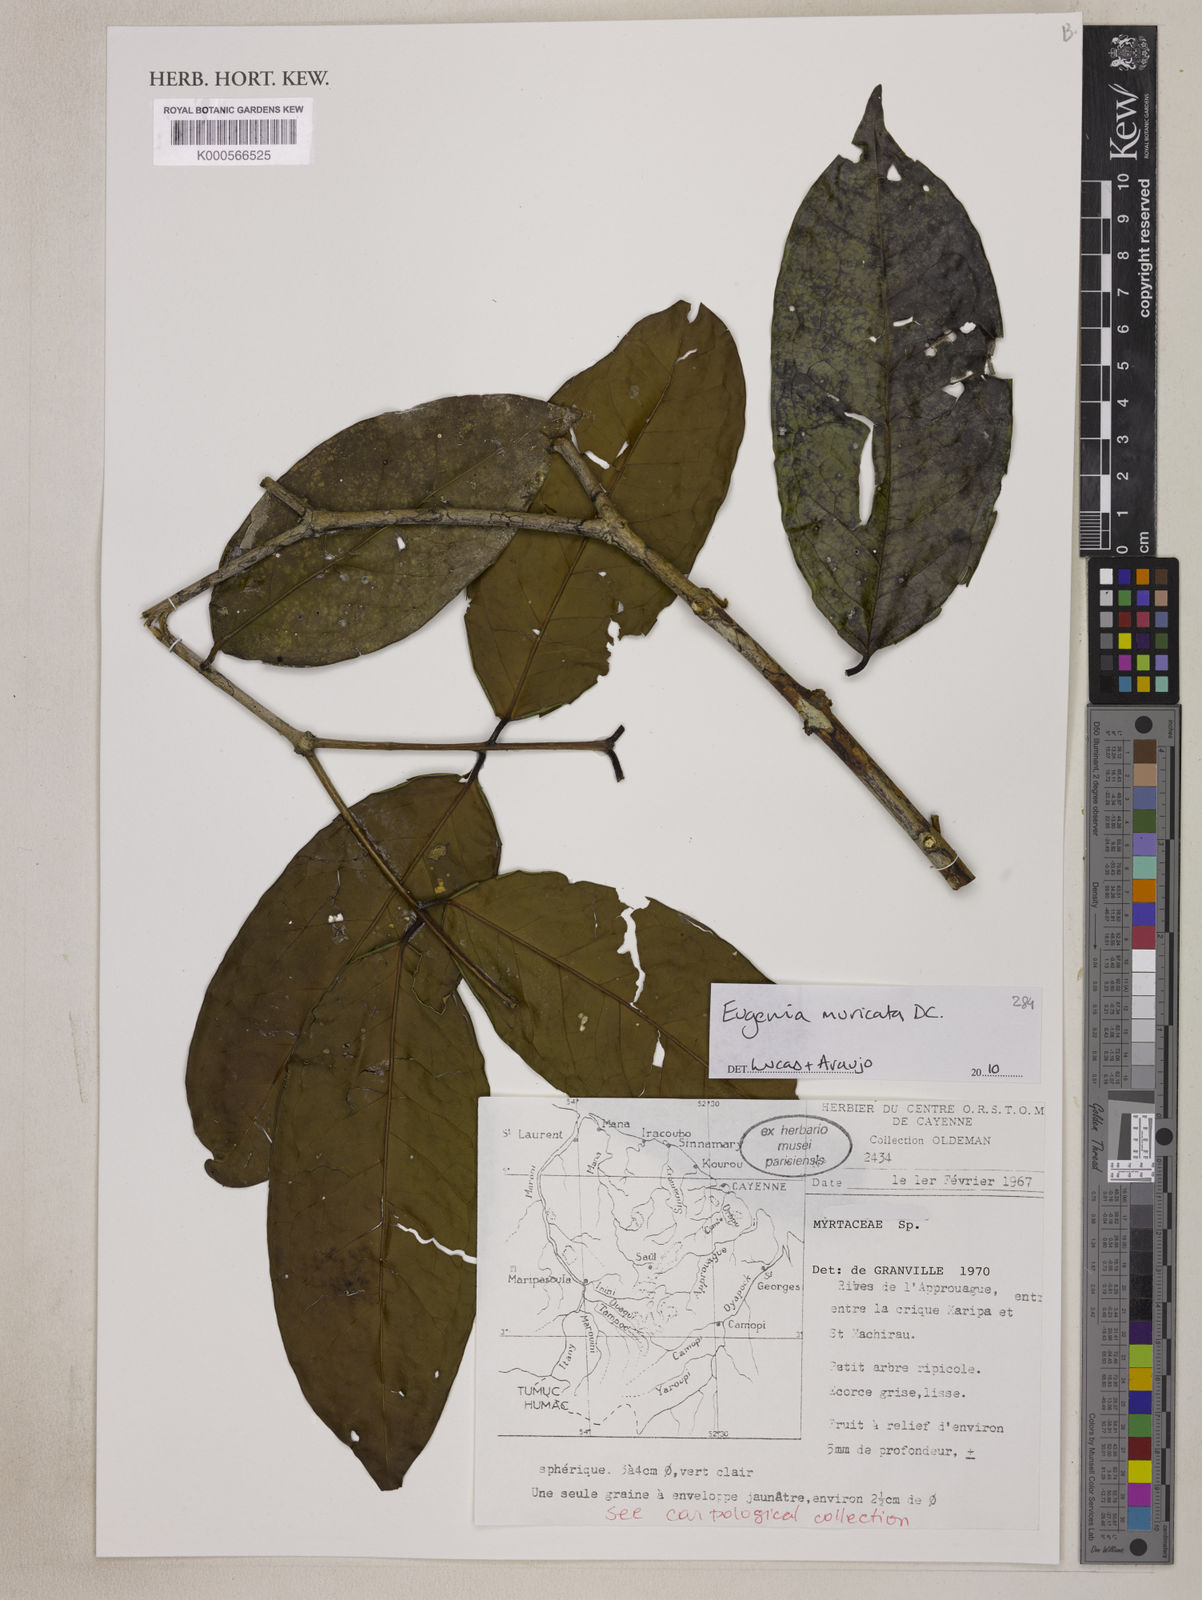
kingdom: Plantae
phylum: Tracheophyta
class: Magnoliopsida
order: Myrtales
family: Myrtaceae
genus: Eugenia
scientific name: Eugenia muricata
